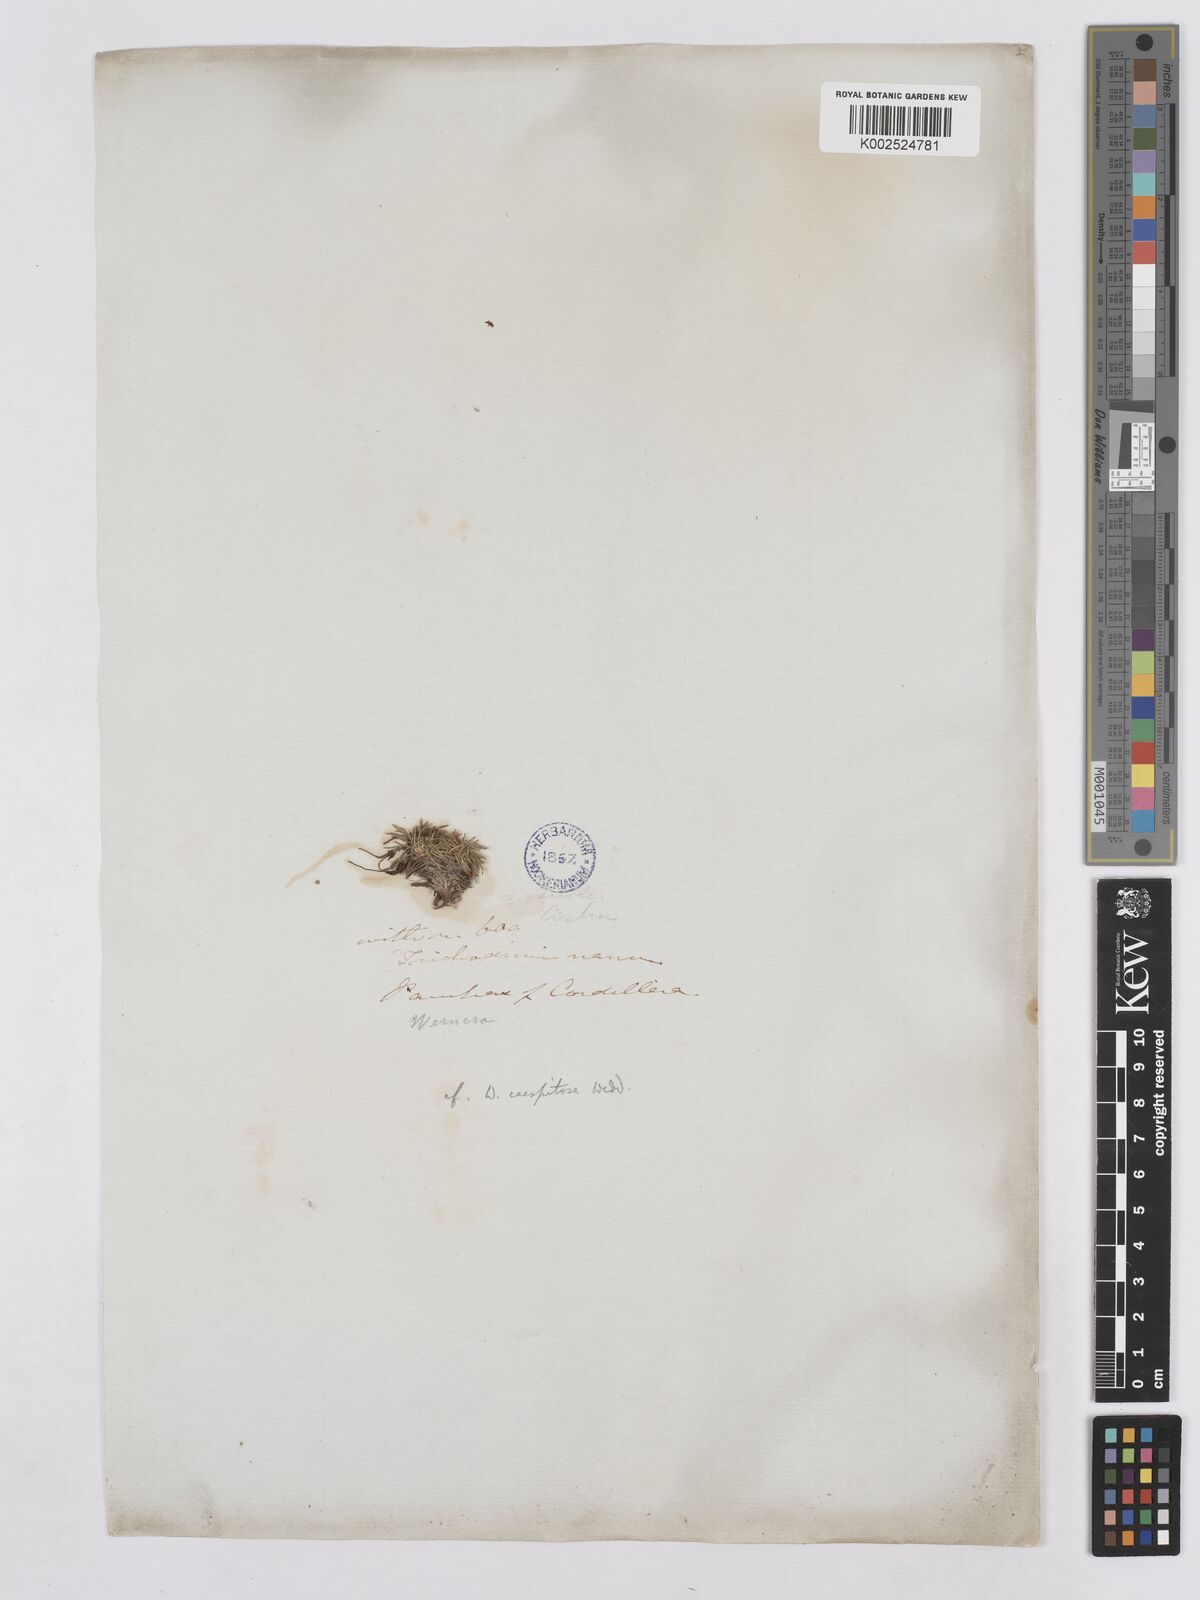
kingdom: Plantae
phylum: Tracheophyta
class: Magnoliopsida
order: Asterales
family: Asteraceae
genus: Rockhausenia
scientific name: Rockhausenia caespitosa
